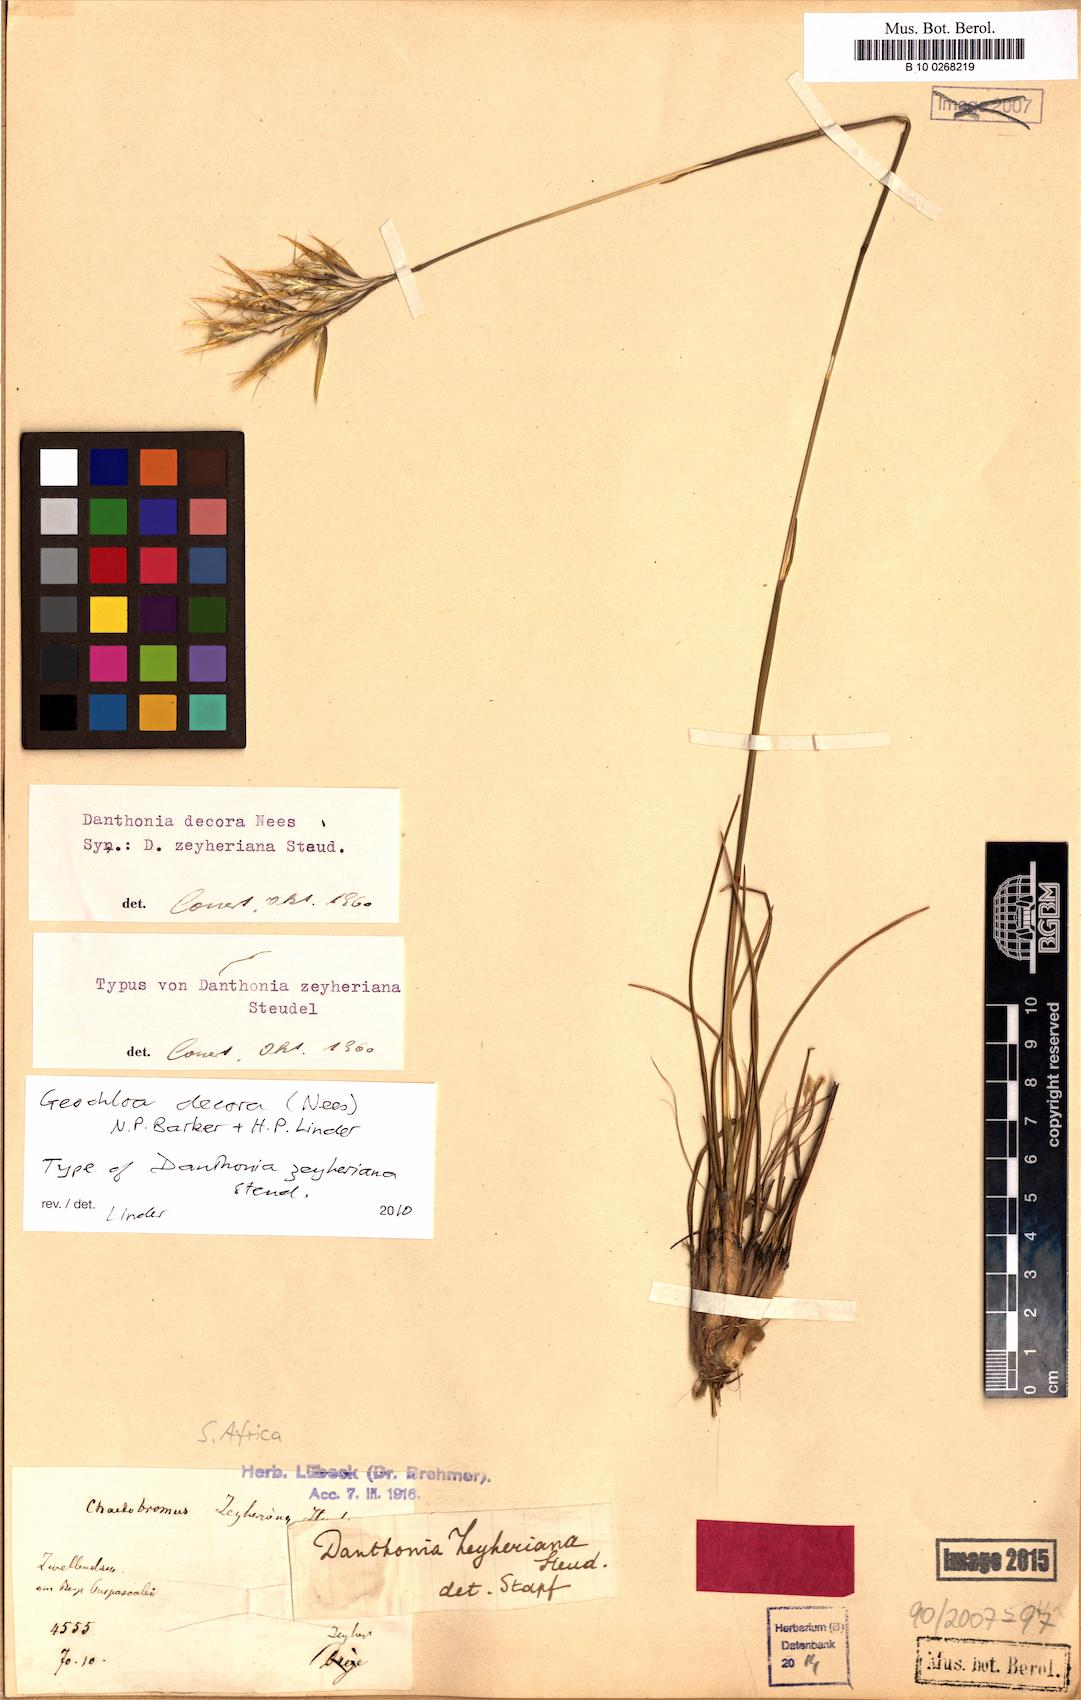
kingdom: Plantae
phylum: Tracheophyta
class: Liliopsida
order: Poales
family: Poaceae
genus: Geochloa
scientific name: Geochloa decora
